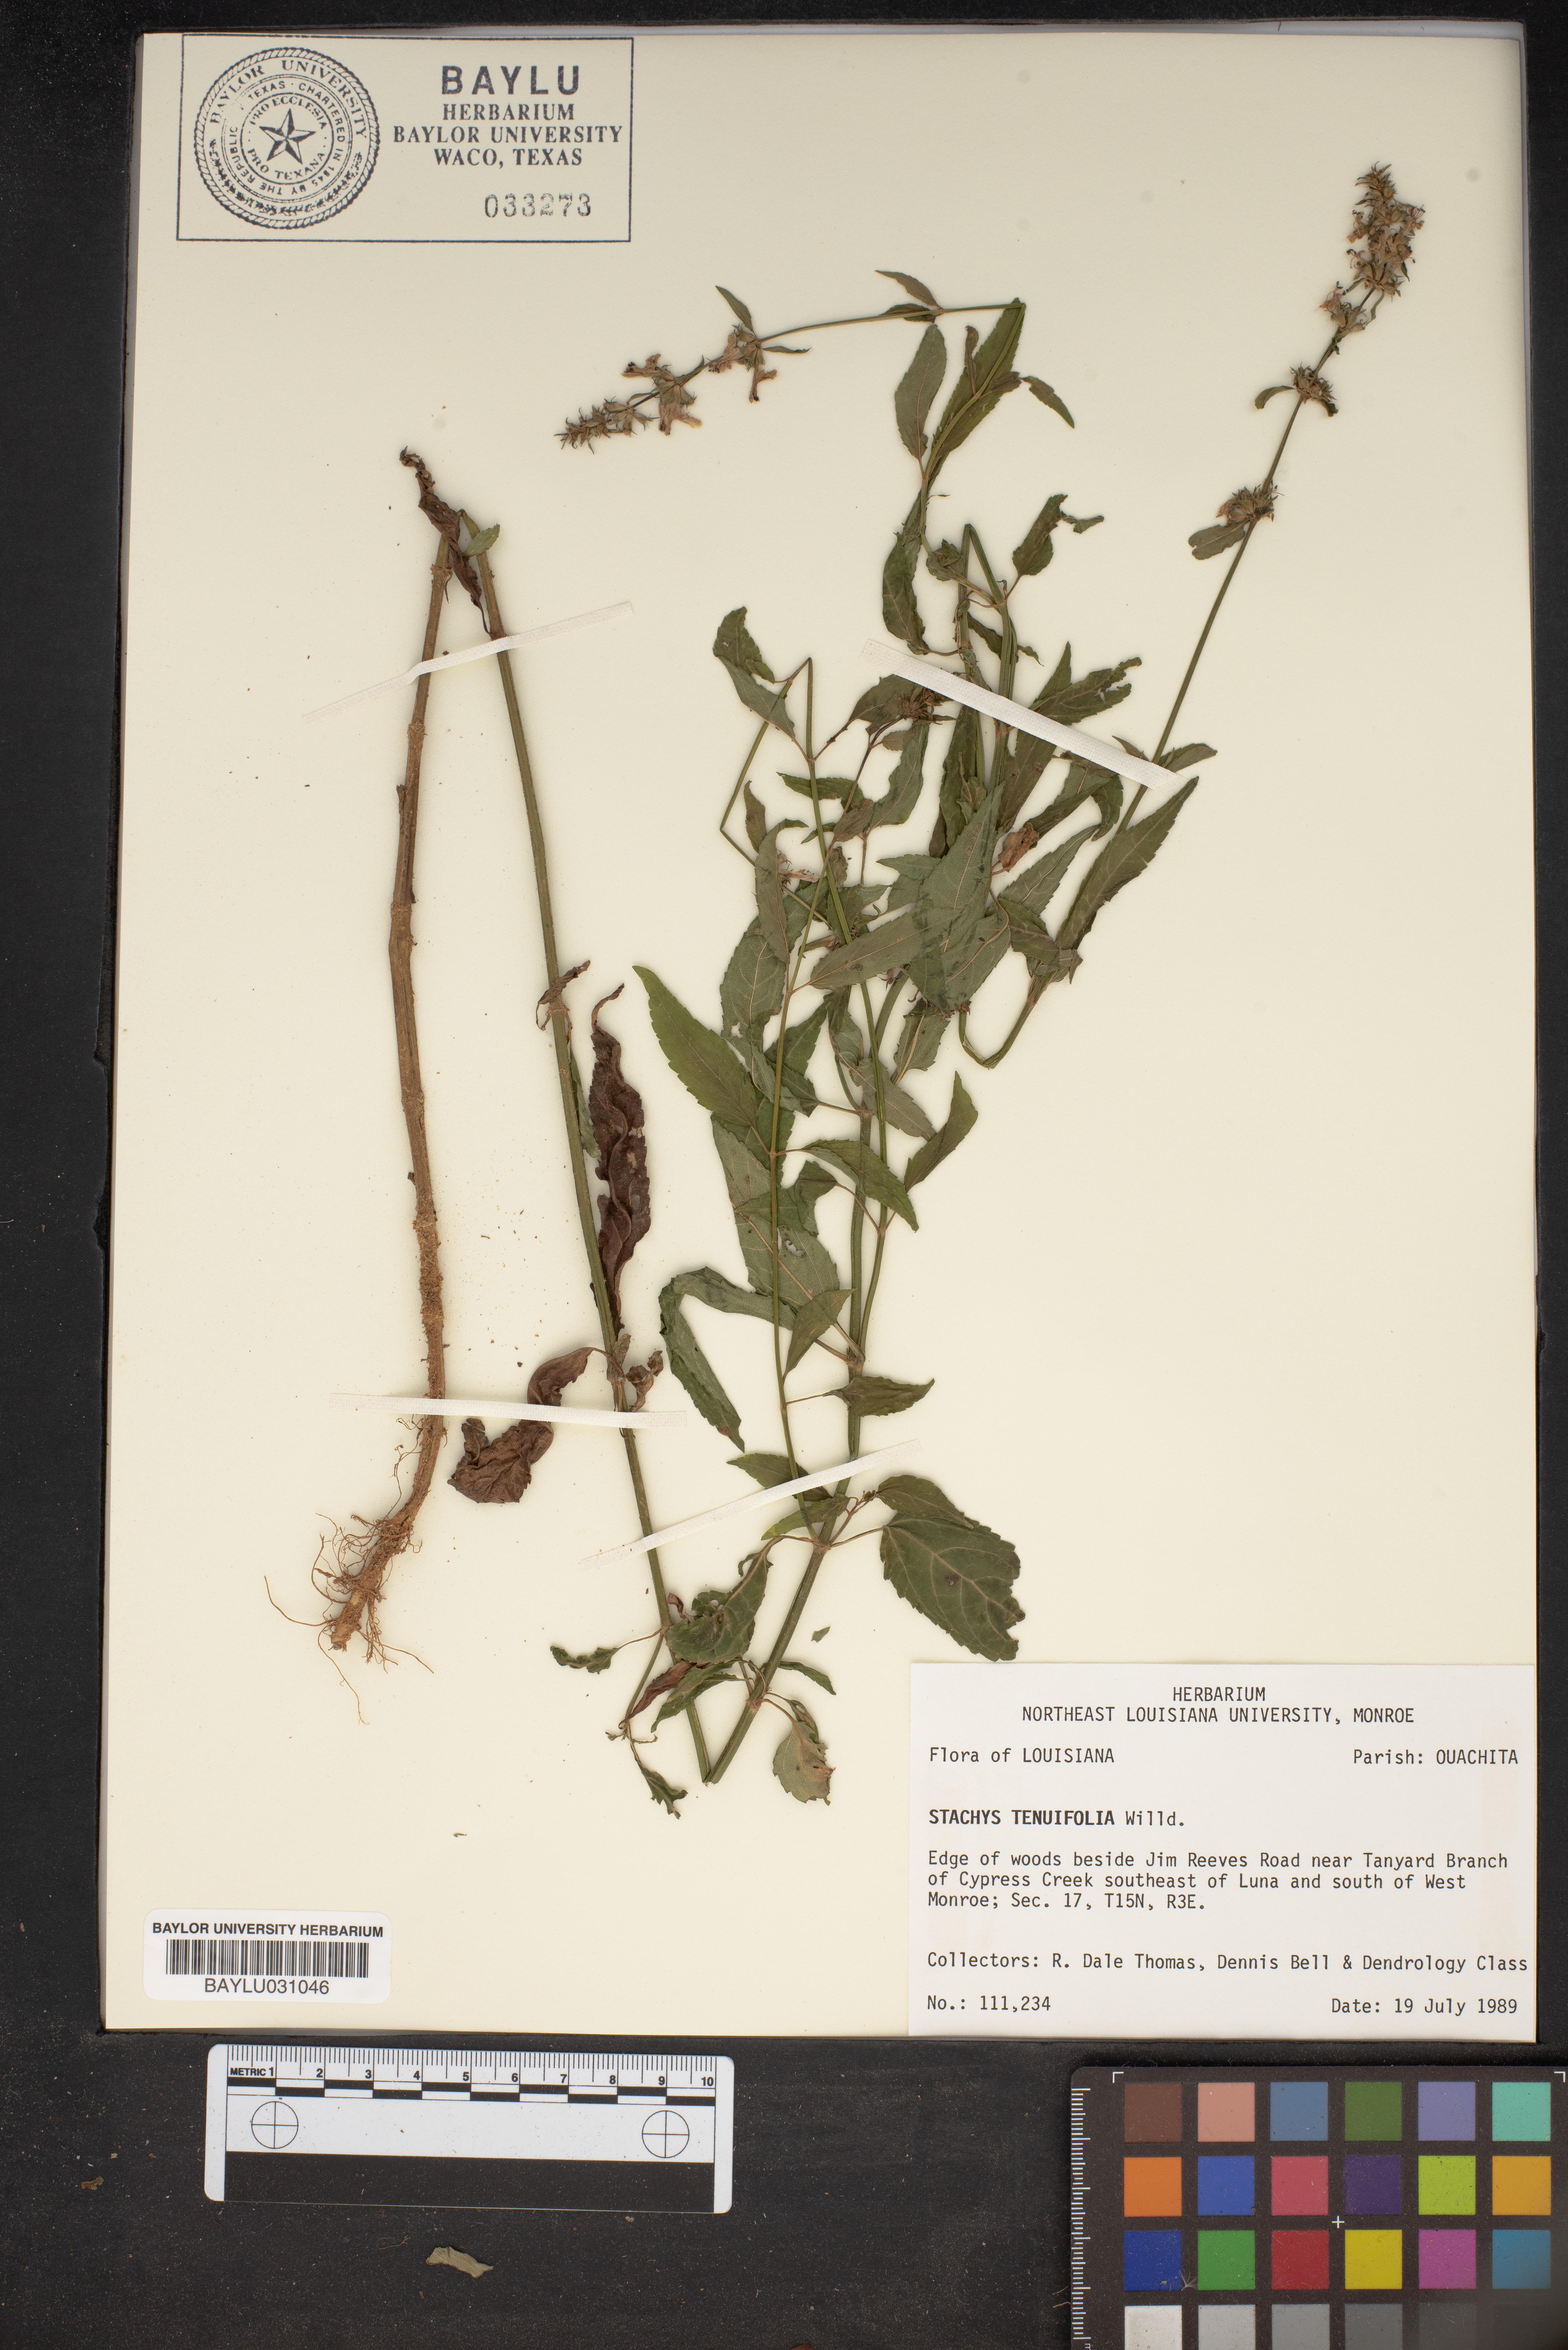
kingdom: Plantae
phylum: Tracheophyta
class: Magnoliopsida
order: Lamiales
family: Lamiaceae
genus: Stachys
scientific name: Stachys tenuifolia
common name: Smooth hedge-nettle
